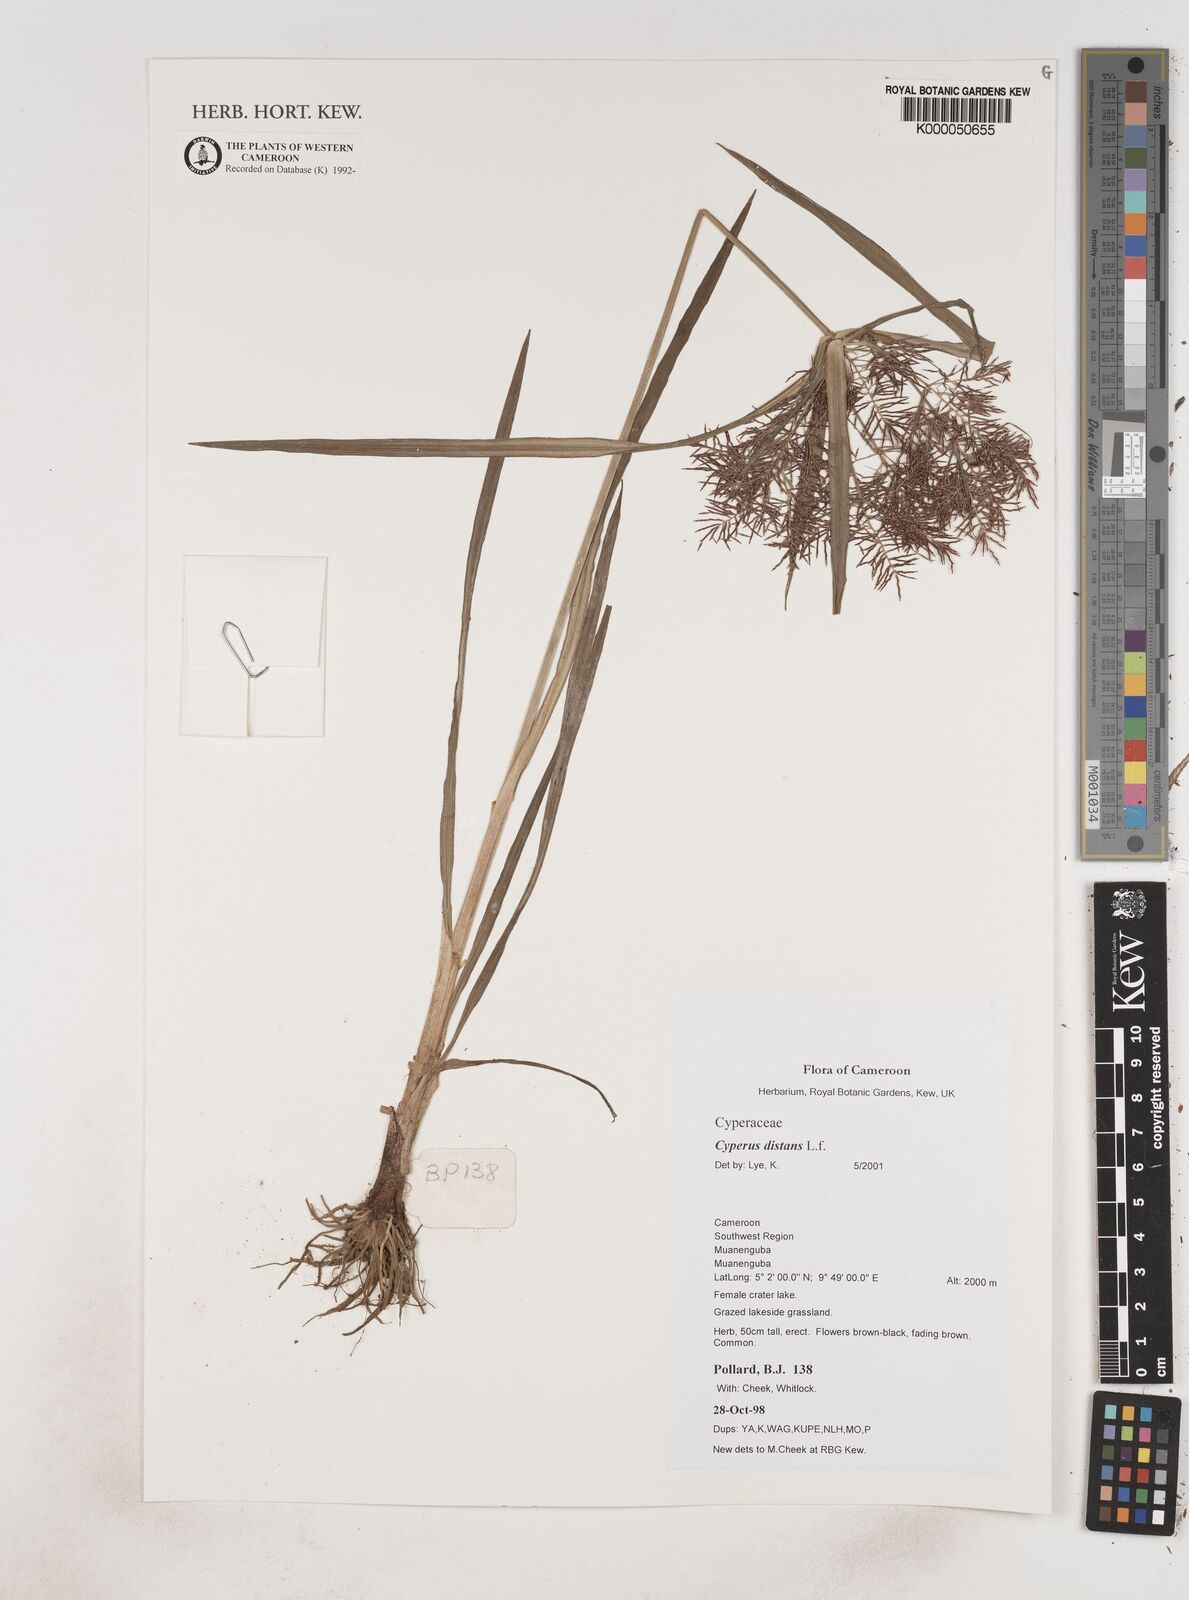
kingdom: Plantae
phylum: Tracheophyta
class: Liliopsida
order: Poales
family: Cyperaceae
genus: Cyperus
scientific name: Cyperus distans
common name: Slender cyperus
